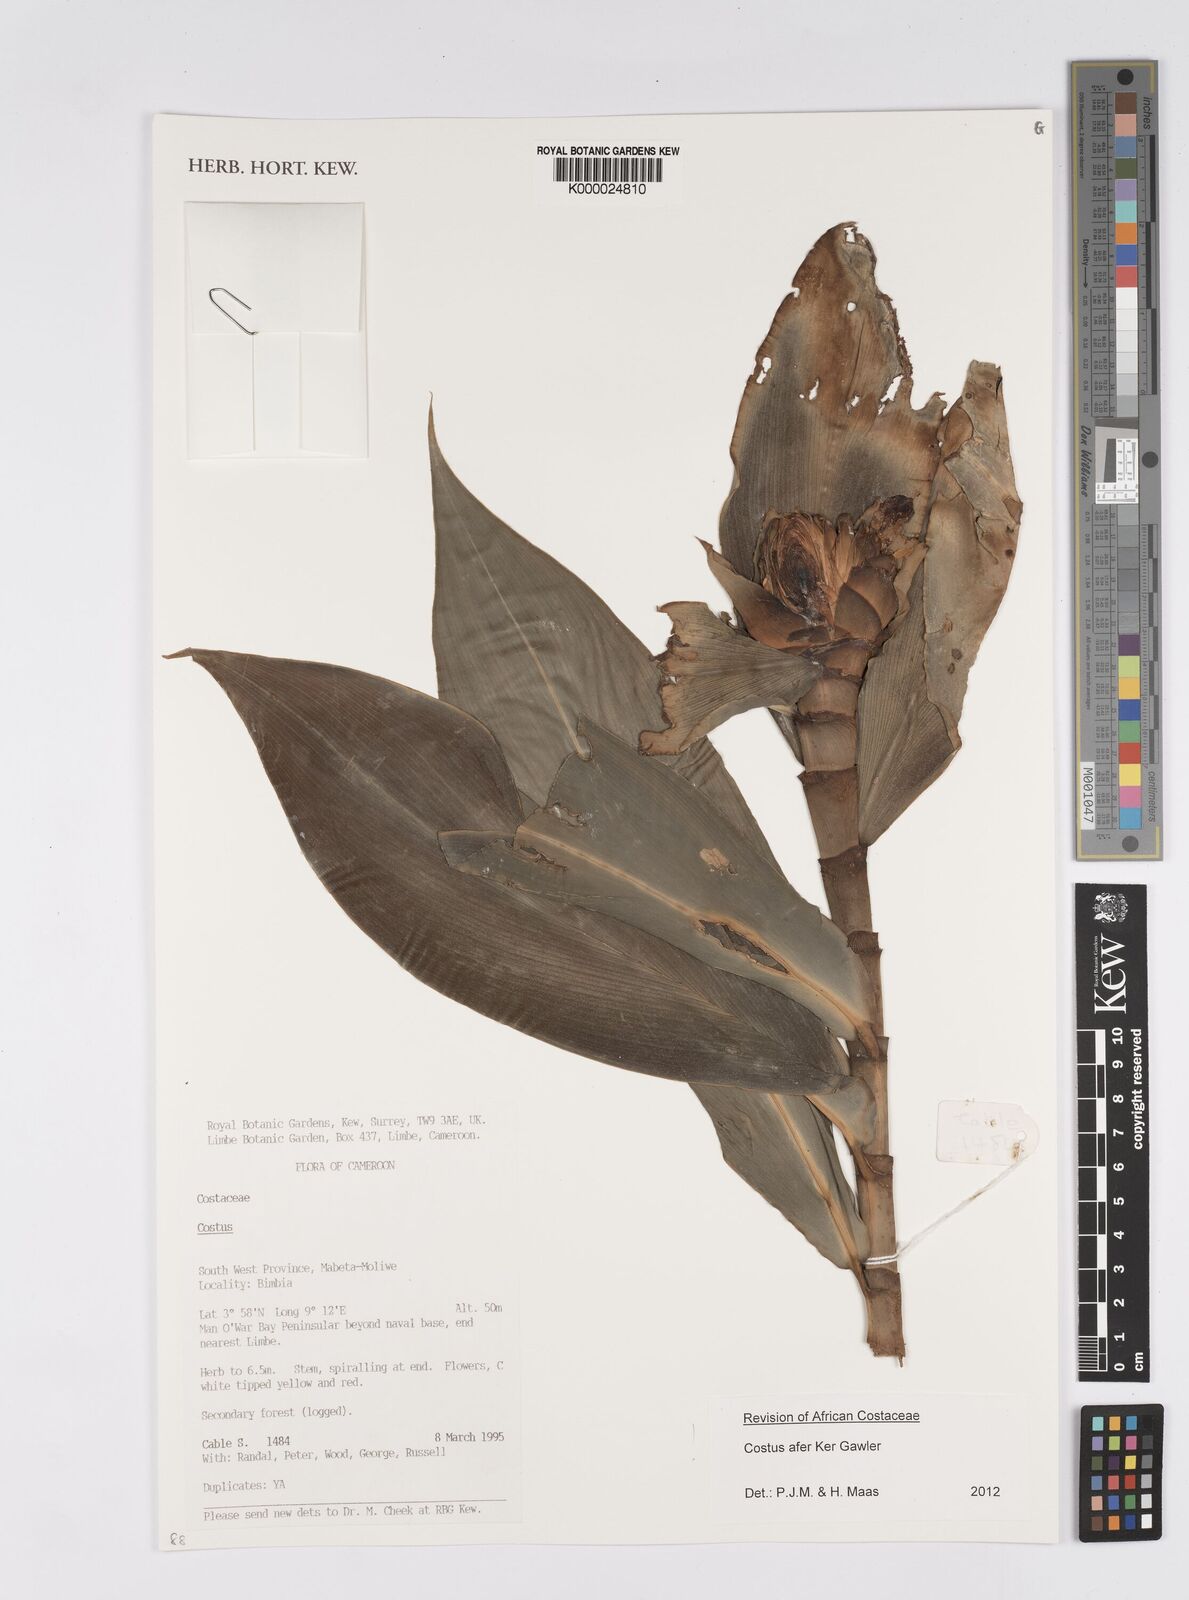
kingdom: Plantae
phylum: Tracheophyta
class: Liliopsida
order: Zingiberales
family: Costaceae
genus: Costus
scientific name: Costus afer
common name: Spiral-ginger
